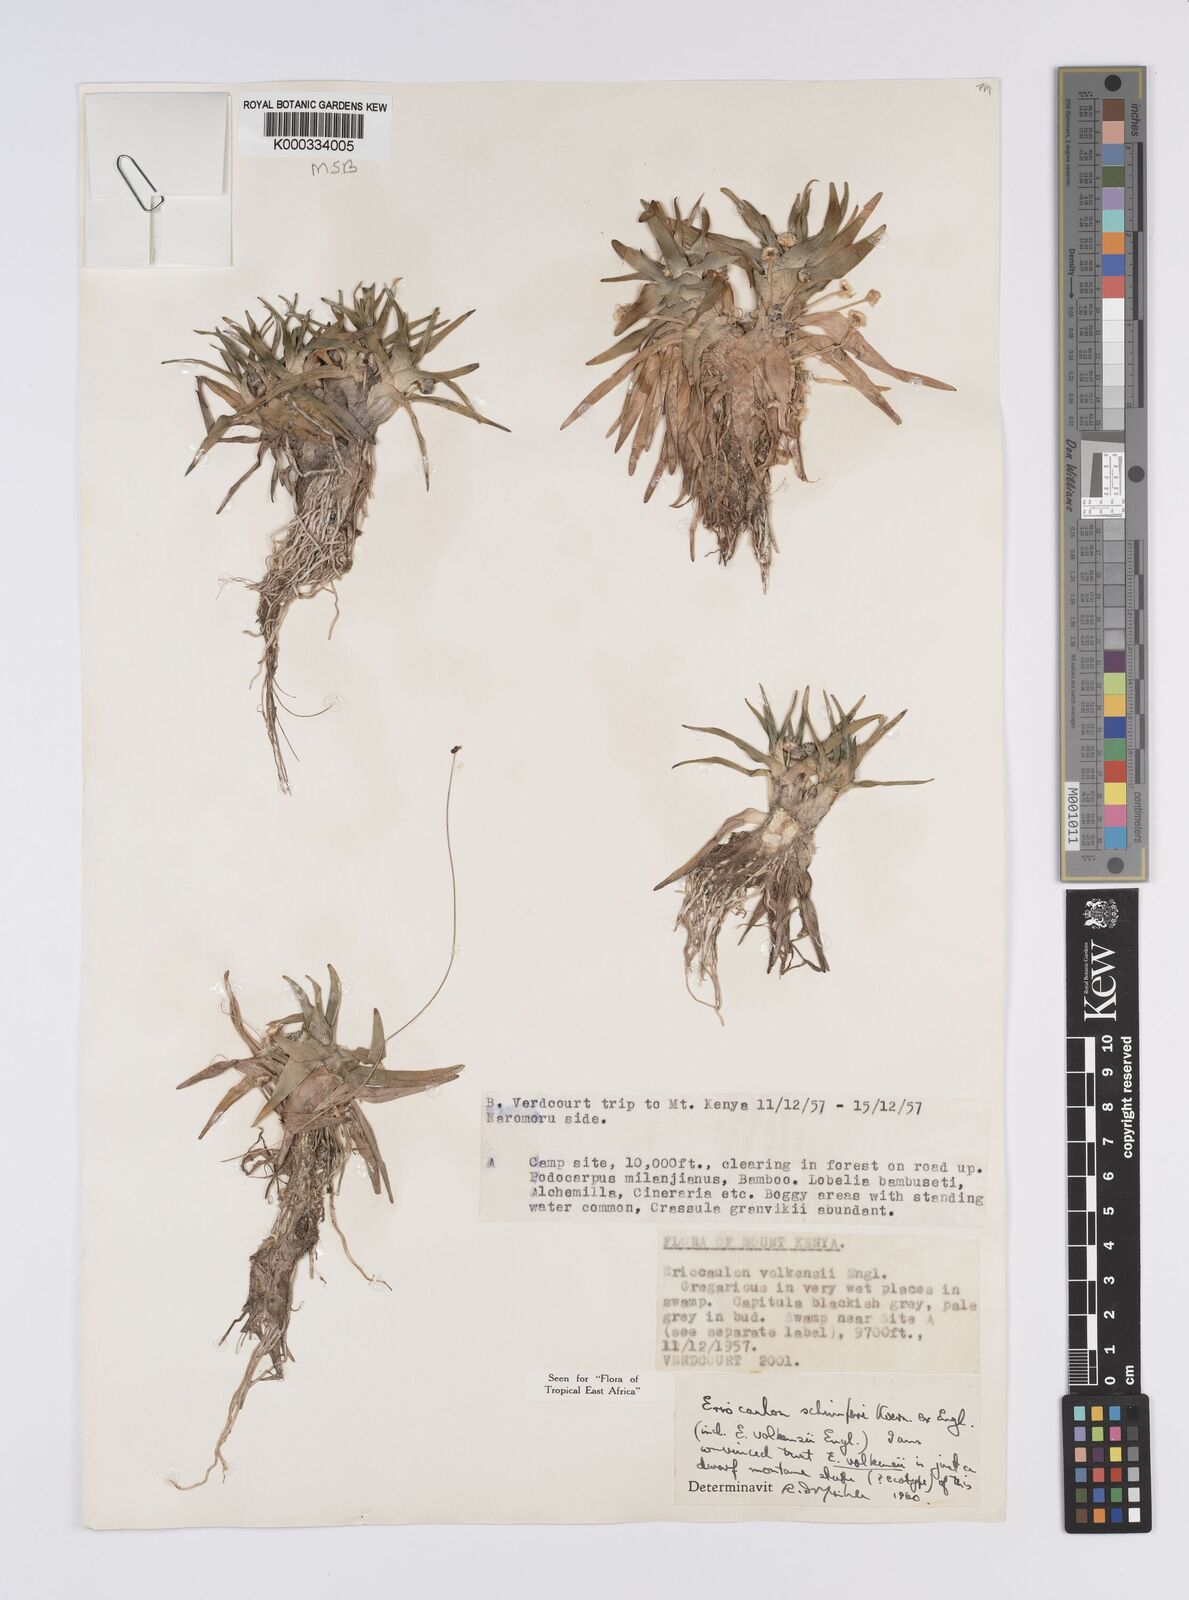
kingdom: Plantae
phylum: Tracheophyta
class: Liliopsida
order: Poales
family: Eriocaulaceae
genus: Eriocaulon
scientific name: Eriocaulon volkensii
